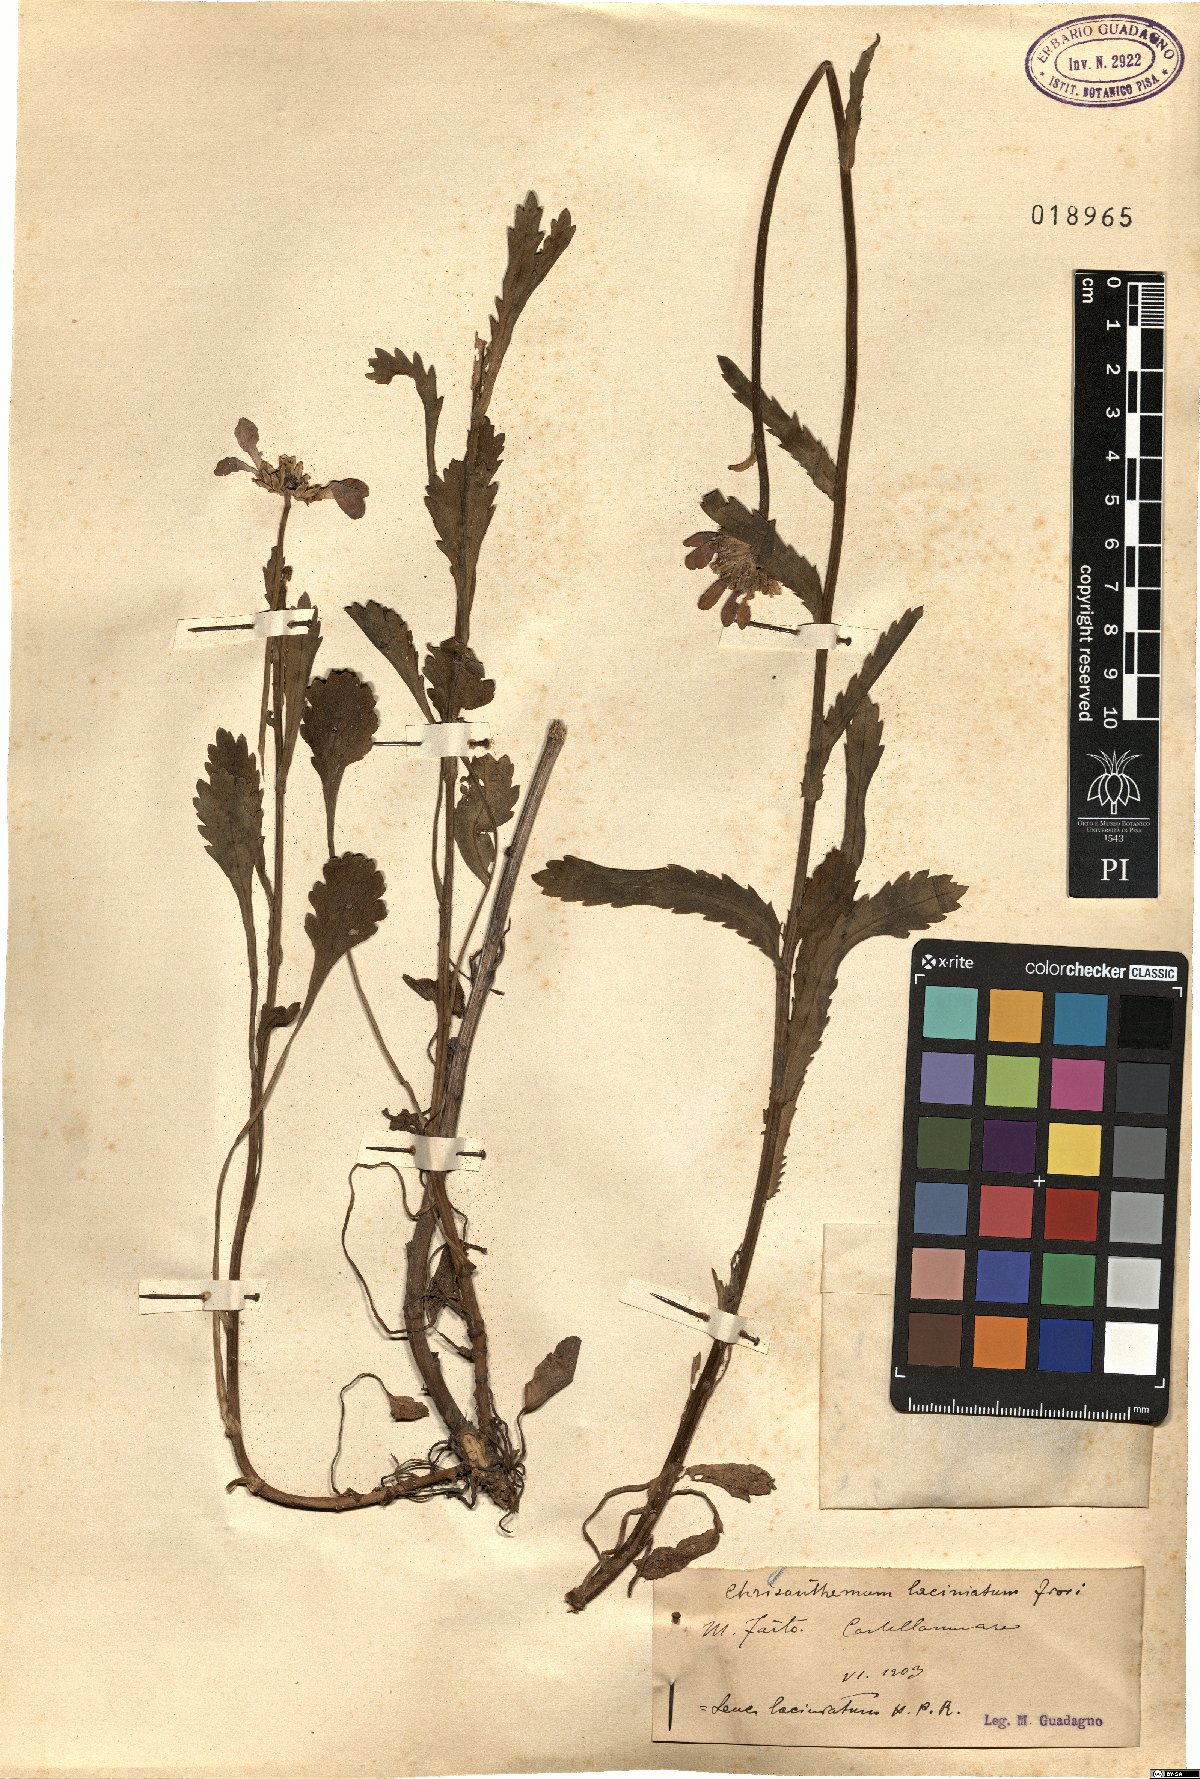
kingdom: Plantae
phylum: Tracheophyta
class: Magnoliopsida
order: Asterales
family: Asteraceae
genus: Leucanthemum
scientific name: Leucanthemum laciniatum
